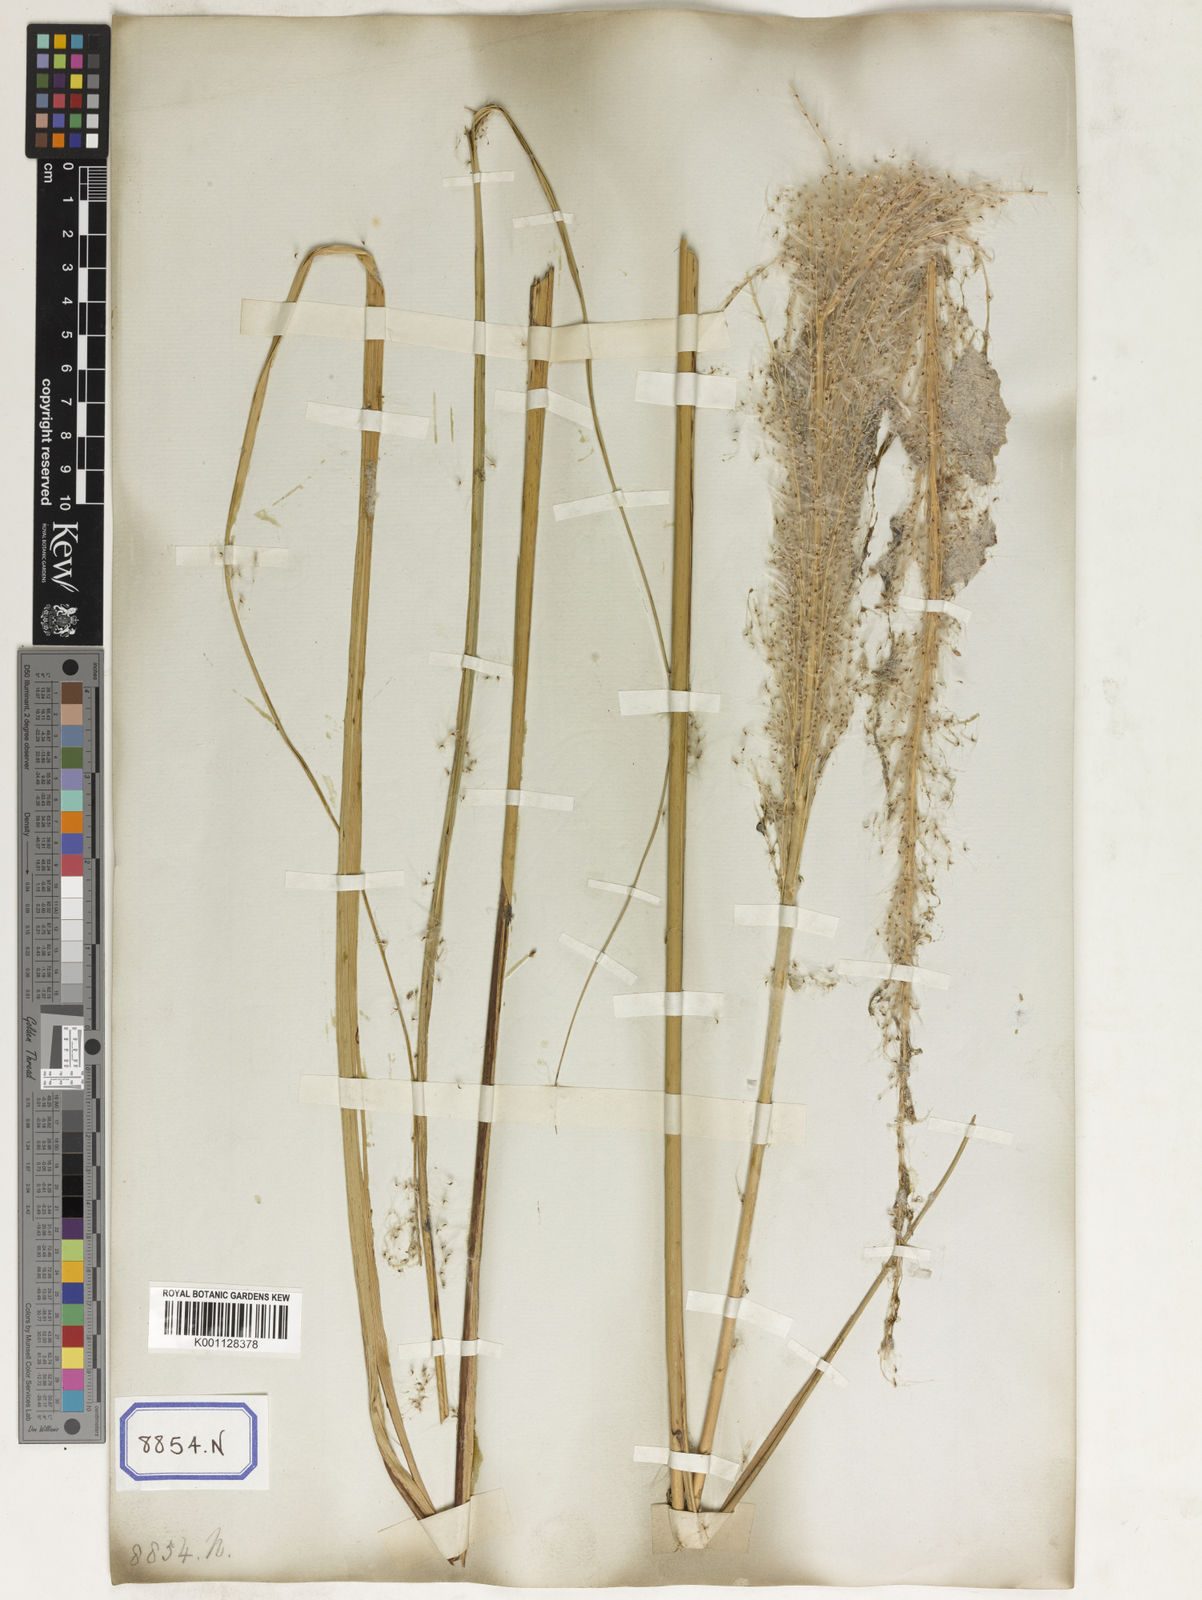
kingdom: Plantae
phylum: Tracheophyta
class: Liliopsida
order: Poales
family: Poaceae
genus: Saccharum
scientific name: Saccharum
